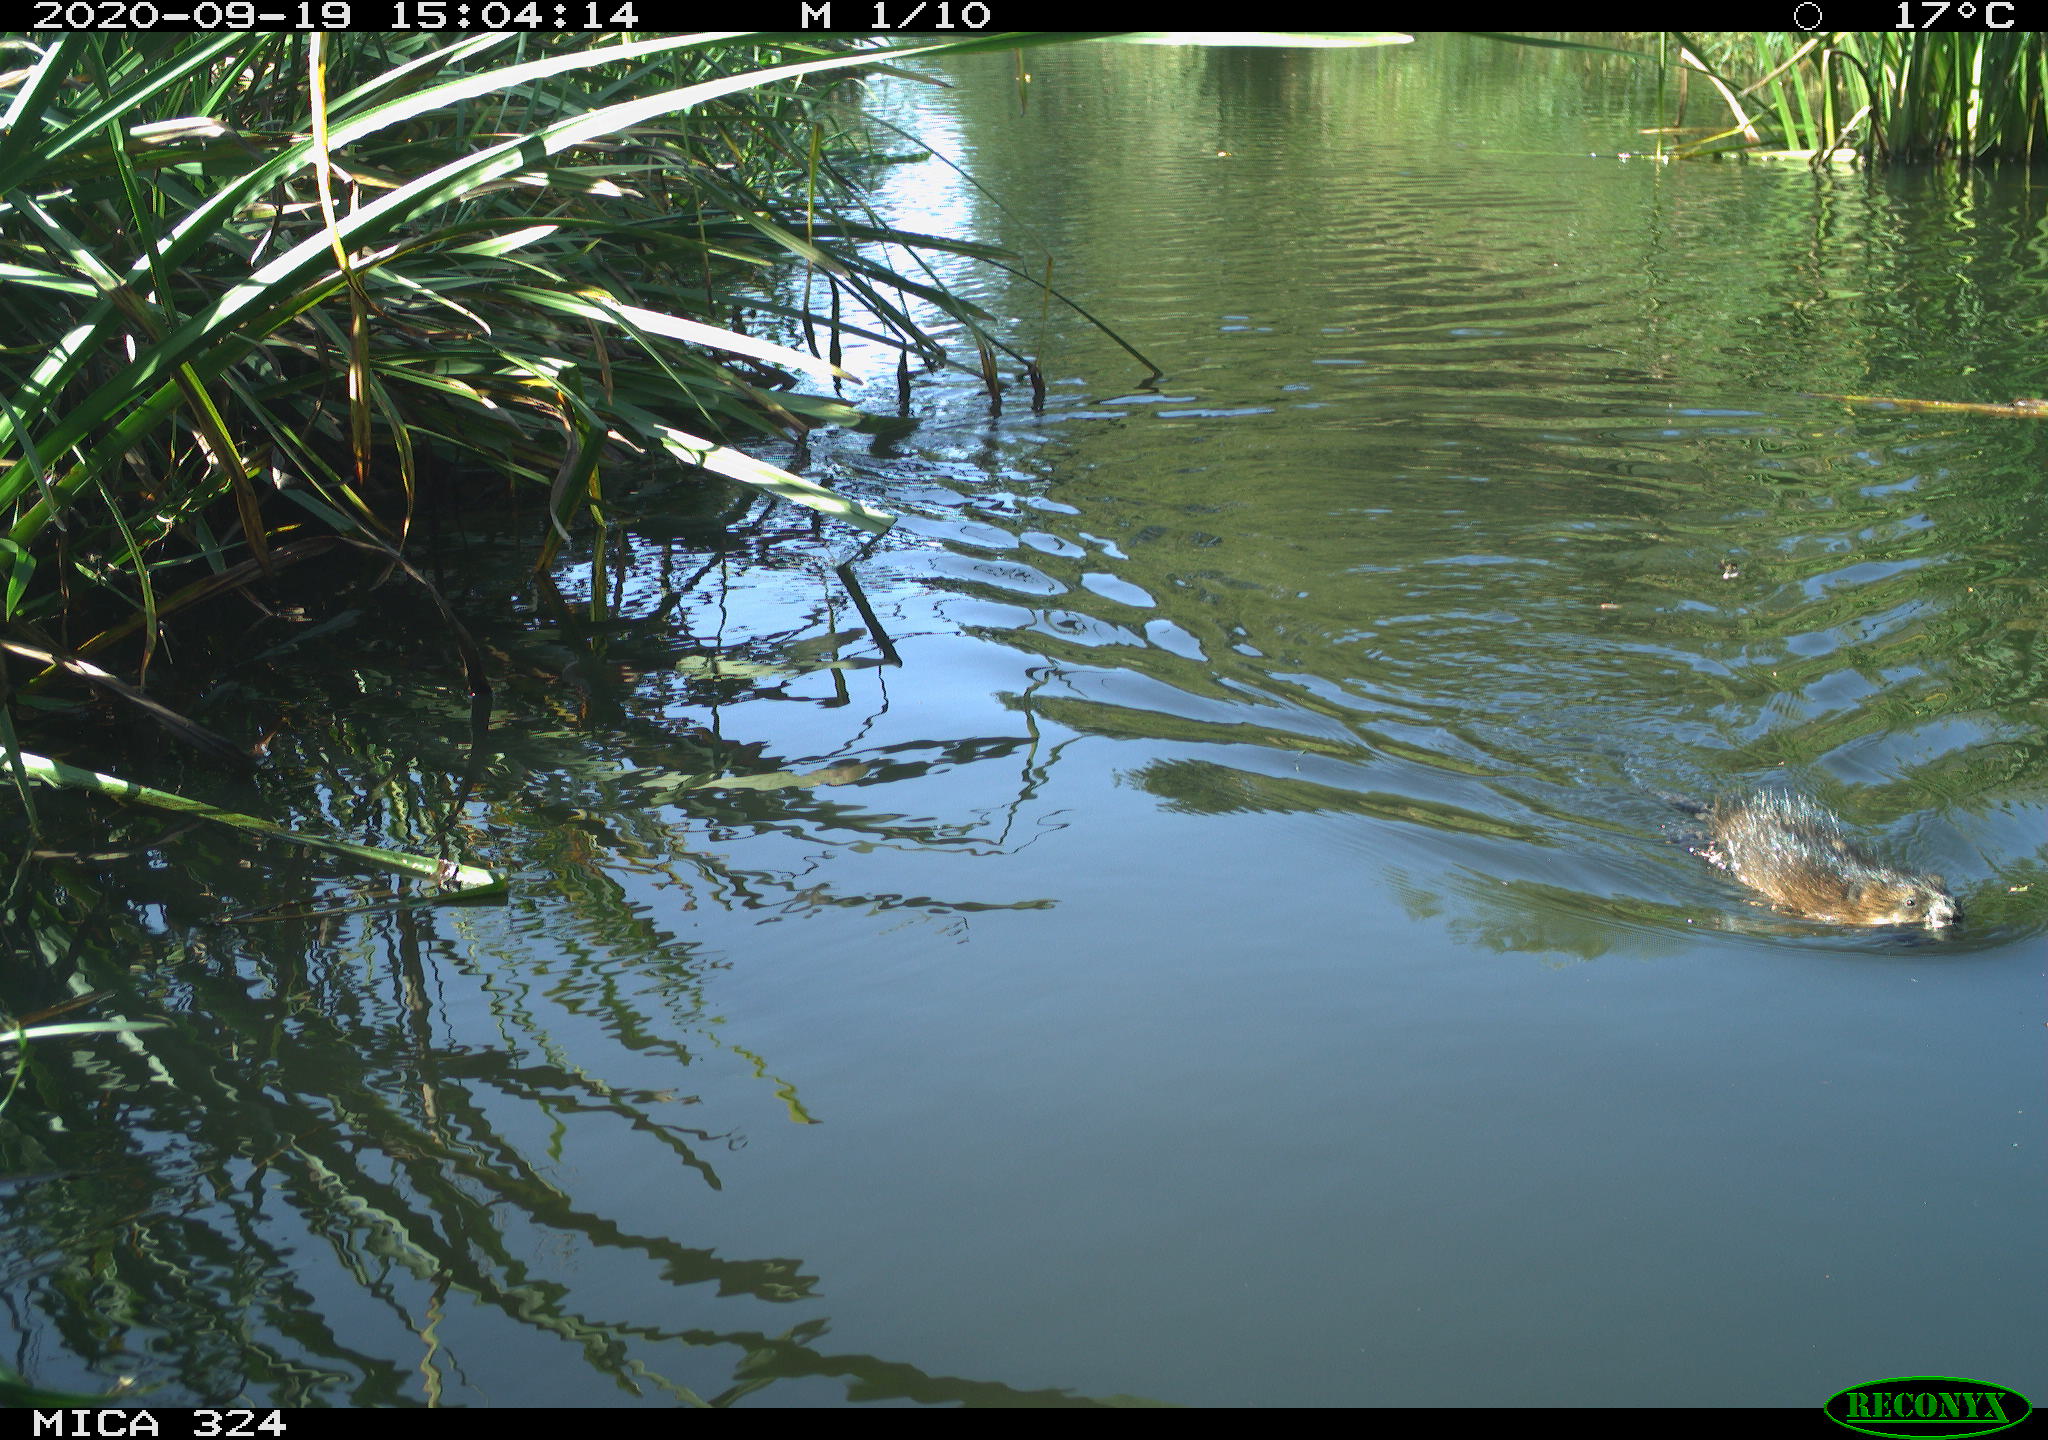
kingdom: Animalia
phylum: Chordata
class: Mammalia
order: Rodentia
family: Cricetidae
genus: Ondatra
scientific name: Ondatra zibethicus
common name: Muskrat
